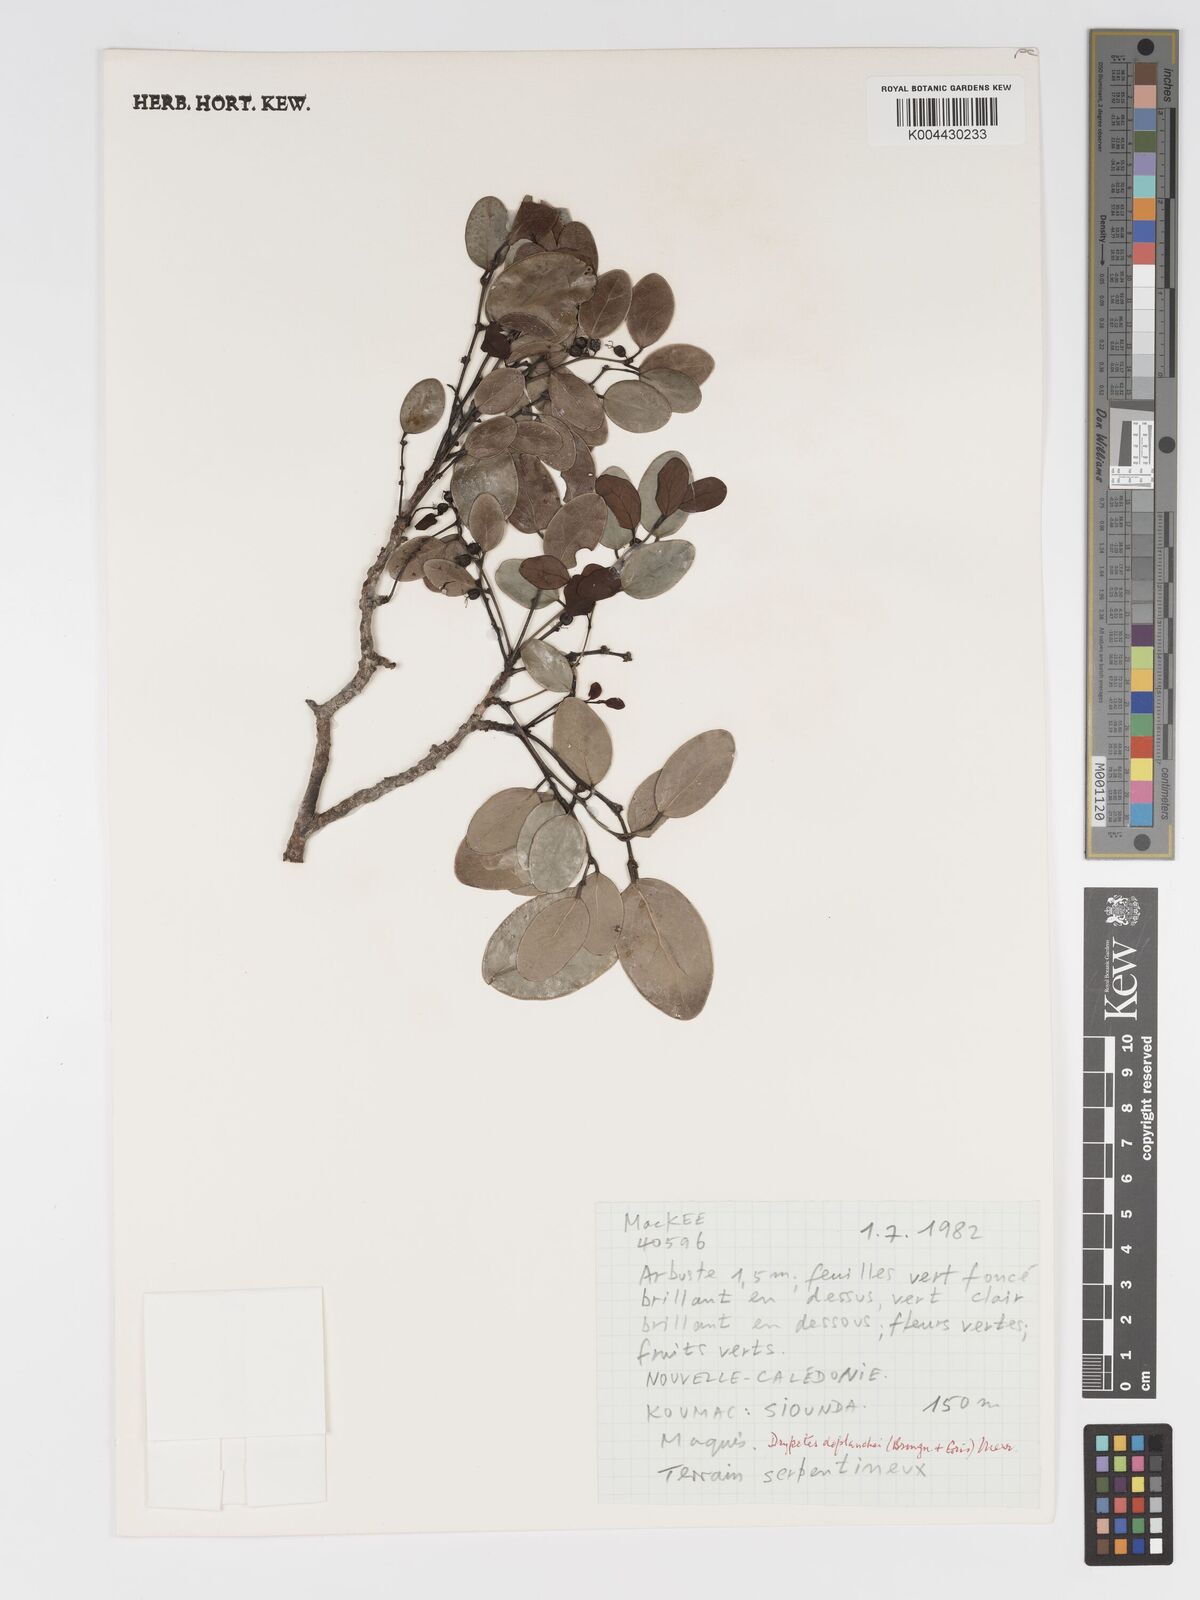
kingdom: Plantae
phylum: Tracheophyta
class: Magnoliopsida
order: Malpighiales
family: Putranjivaceae
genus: Drypetes
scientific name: Drypetes deplanchei
